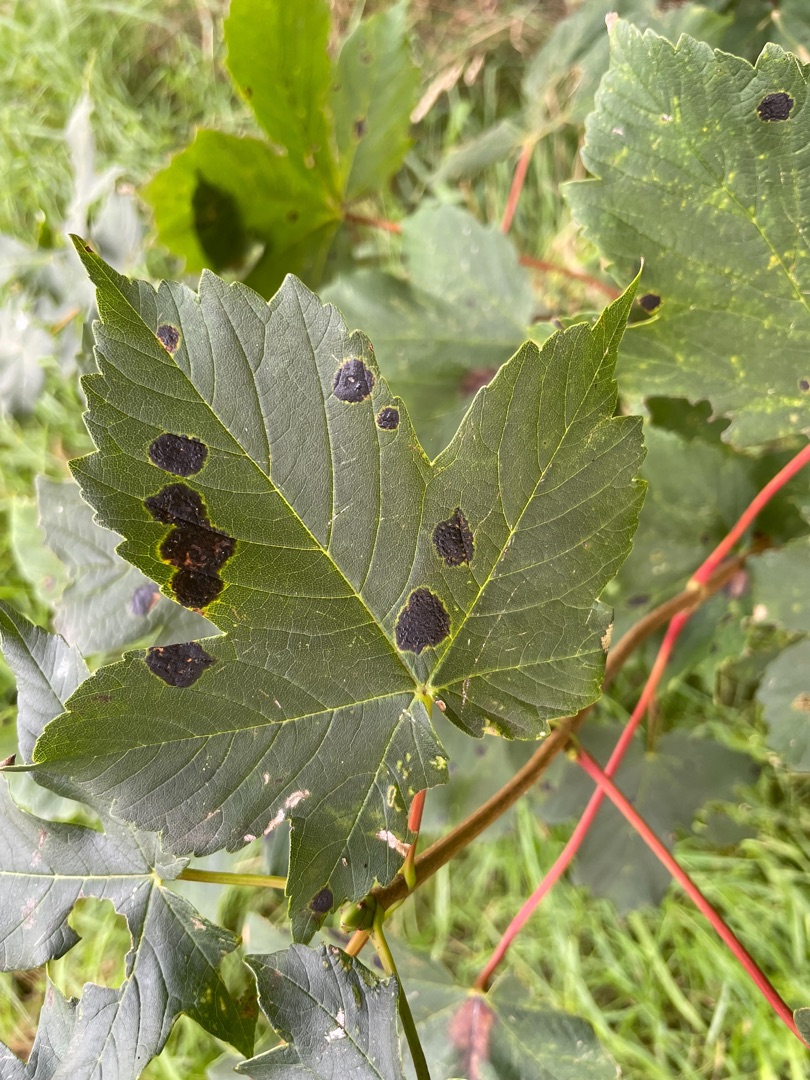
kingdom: Fungi
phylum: Ascomycota
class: Leotiomycetes
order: Rhytismatales
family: Rhytismataceae
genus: Rhytisma
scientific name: Rhytisma acerinum
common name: Ahorn-rynkeplet
